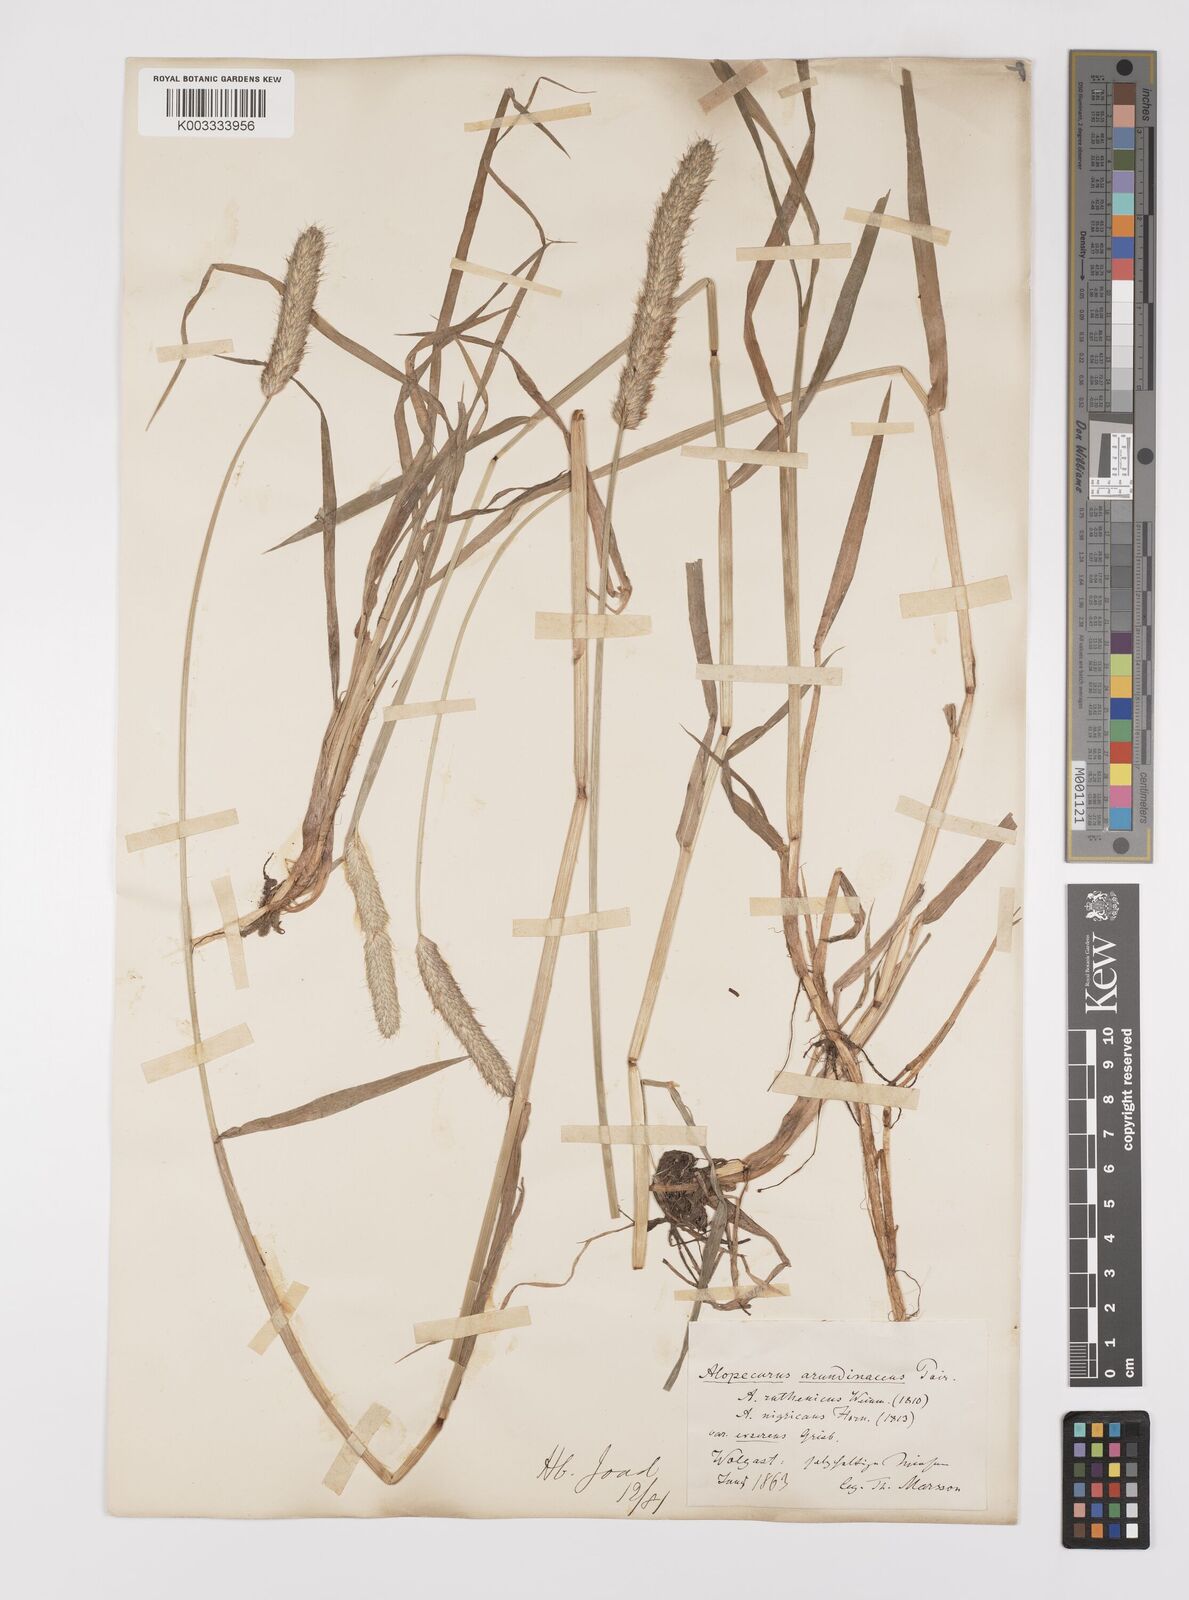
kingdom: Plantae
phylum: Tracheophyta
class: Liliopsida
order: Poales
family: Poaceae
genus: Alopecurus
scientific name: Alopecurus arundinaceus
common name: Creeping meadow foxtail
